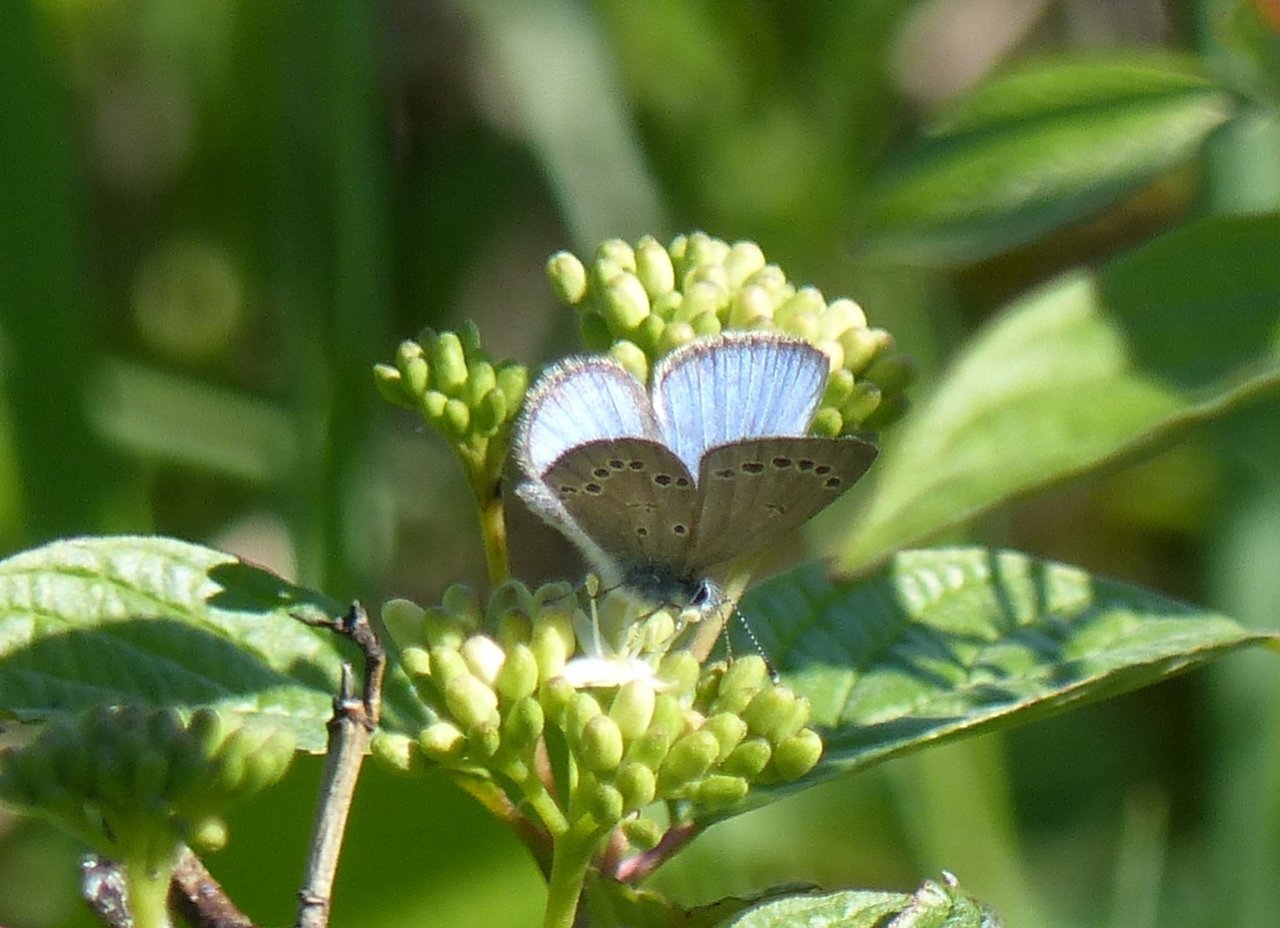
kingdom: Animalia
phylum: Arthropoda
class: Insecta
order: Lepidoptera
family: Lycaenidae
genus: Glaucopsyche
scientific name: Glaucopsyche lygdamus
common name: Silvery Blue
